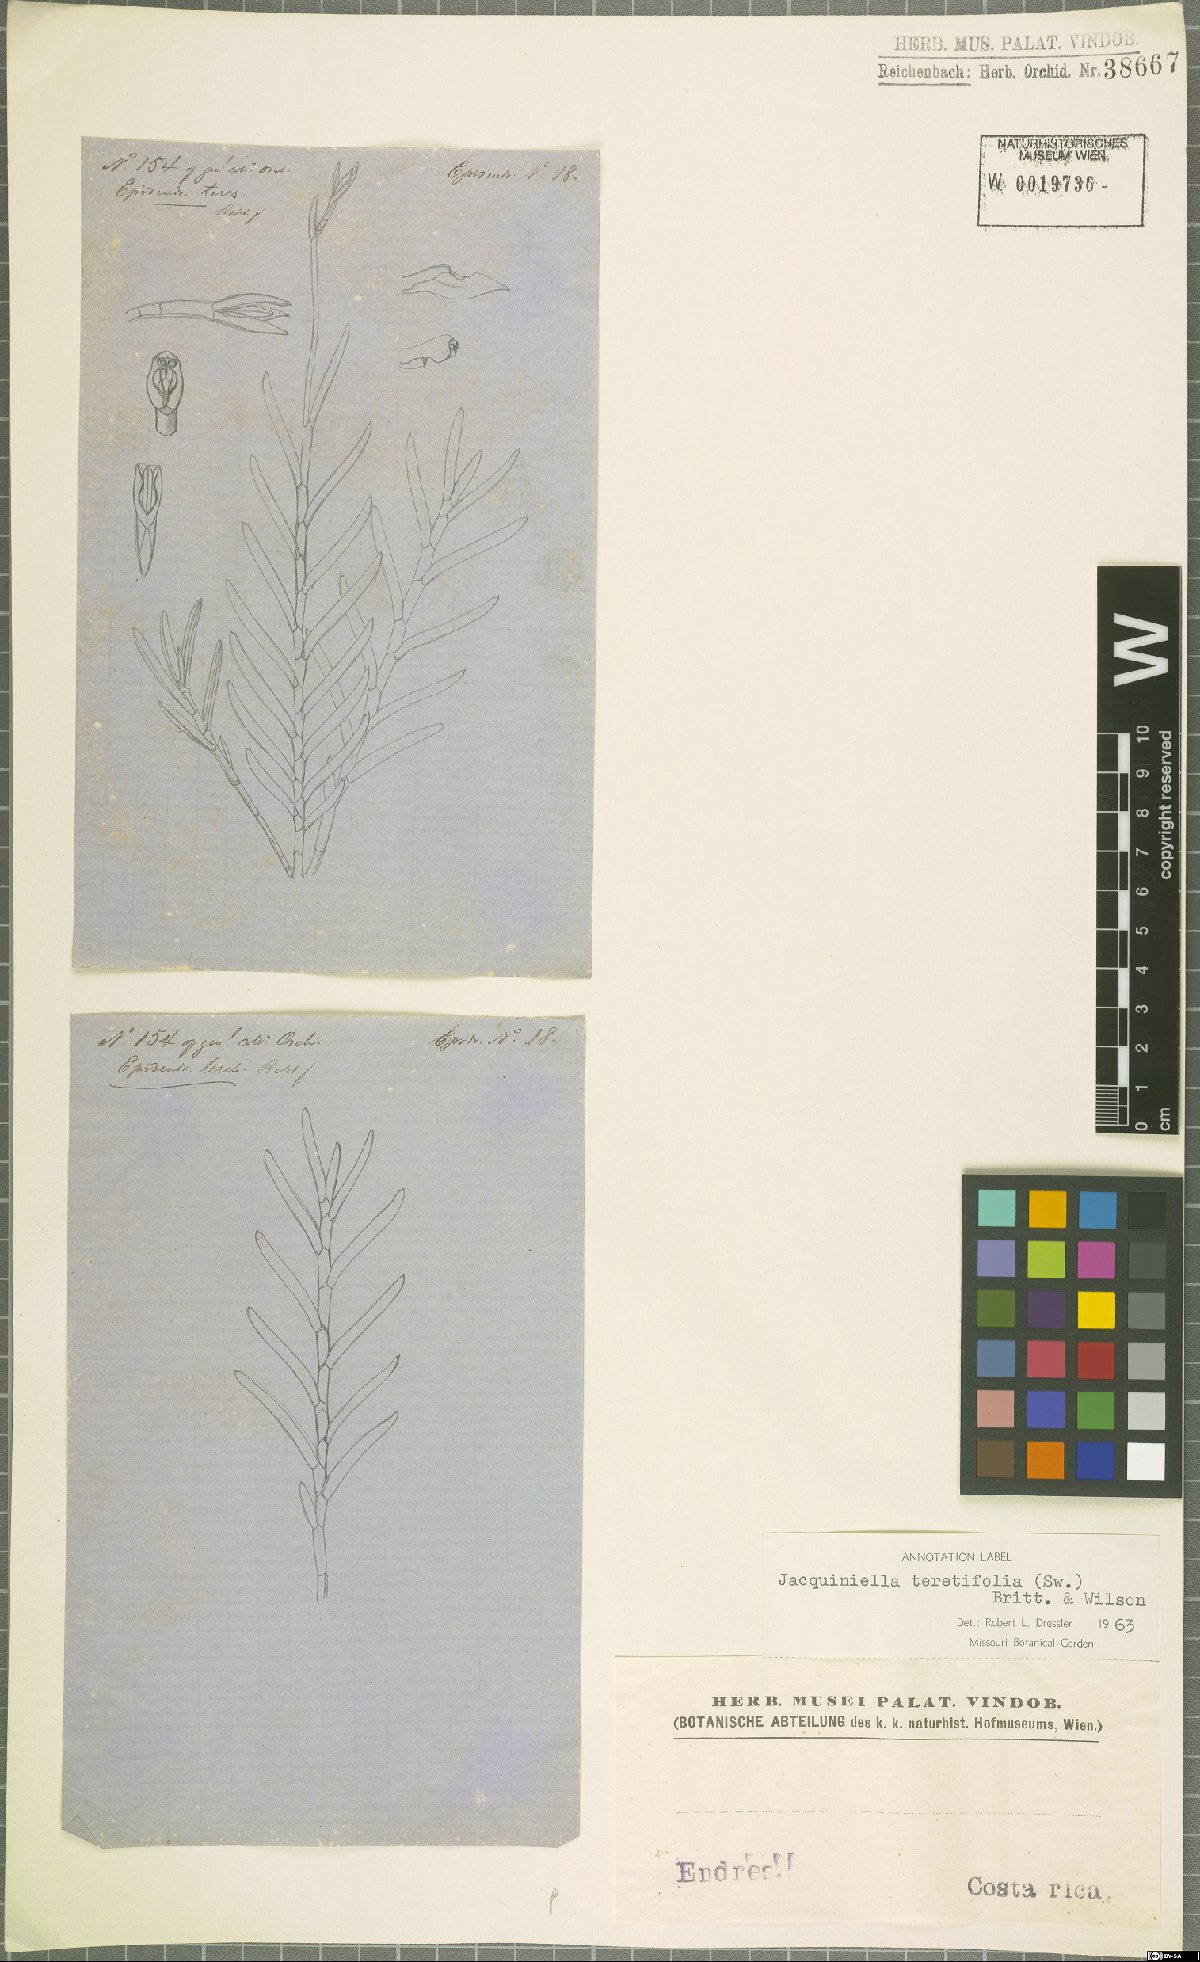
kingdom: Plantae
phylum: Tracheophyta
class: Liliopsida
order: Asparagales
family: Orchidaceae
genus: Jacquiniella
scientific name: Jacquiniella teretifolia
